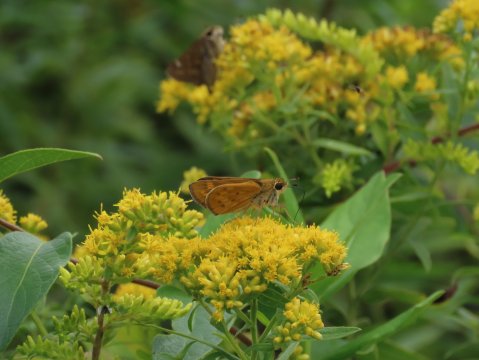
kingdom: Animalia
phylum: Arthropoda
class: Insecta
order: Lepidoptera
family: Hesperiidae
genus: Hylephila
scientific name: Hylephila phyleus
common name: Fiery Skipper
